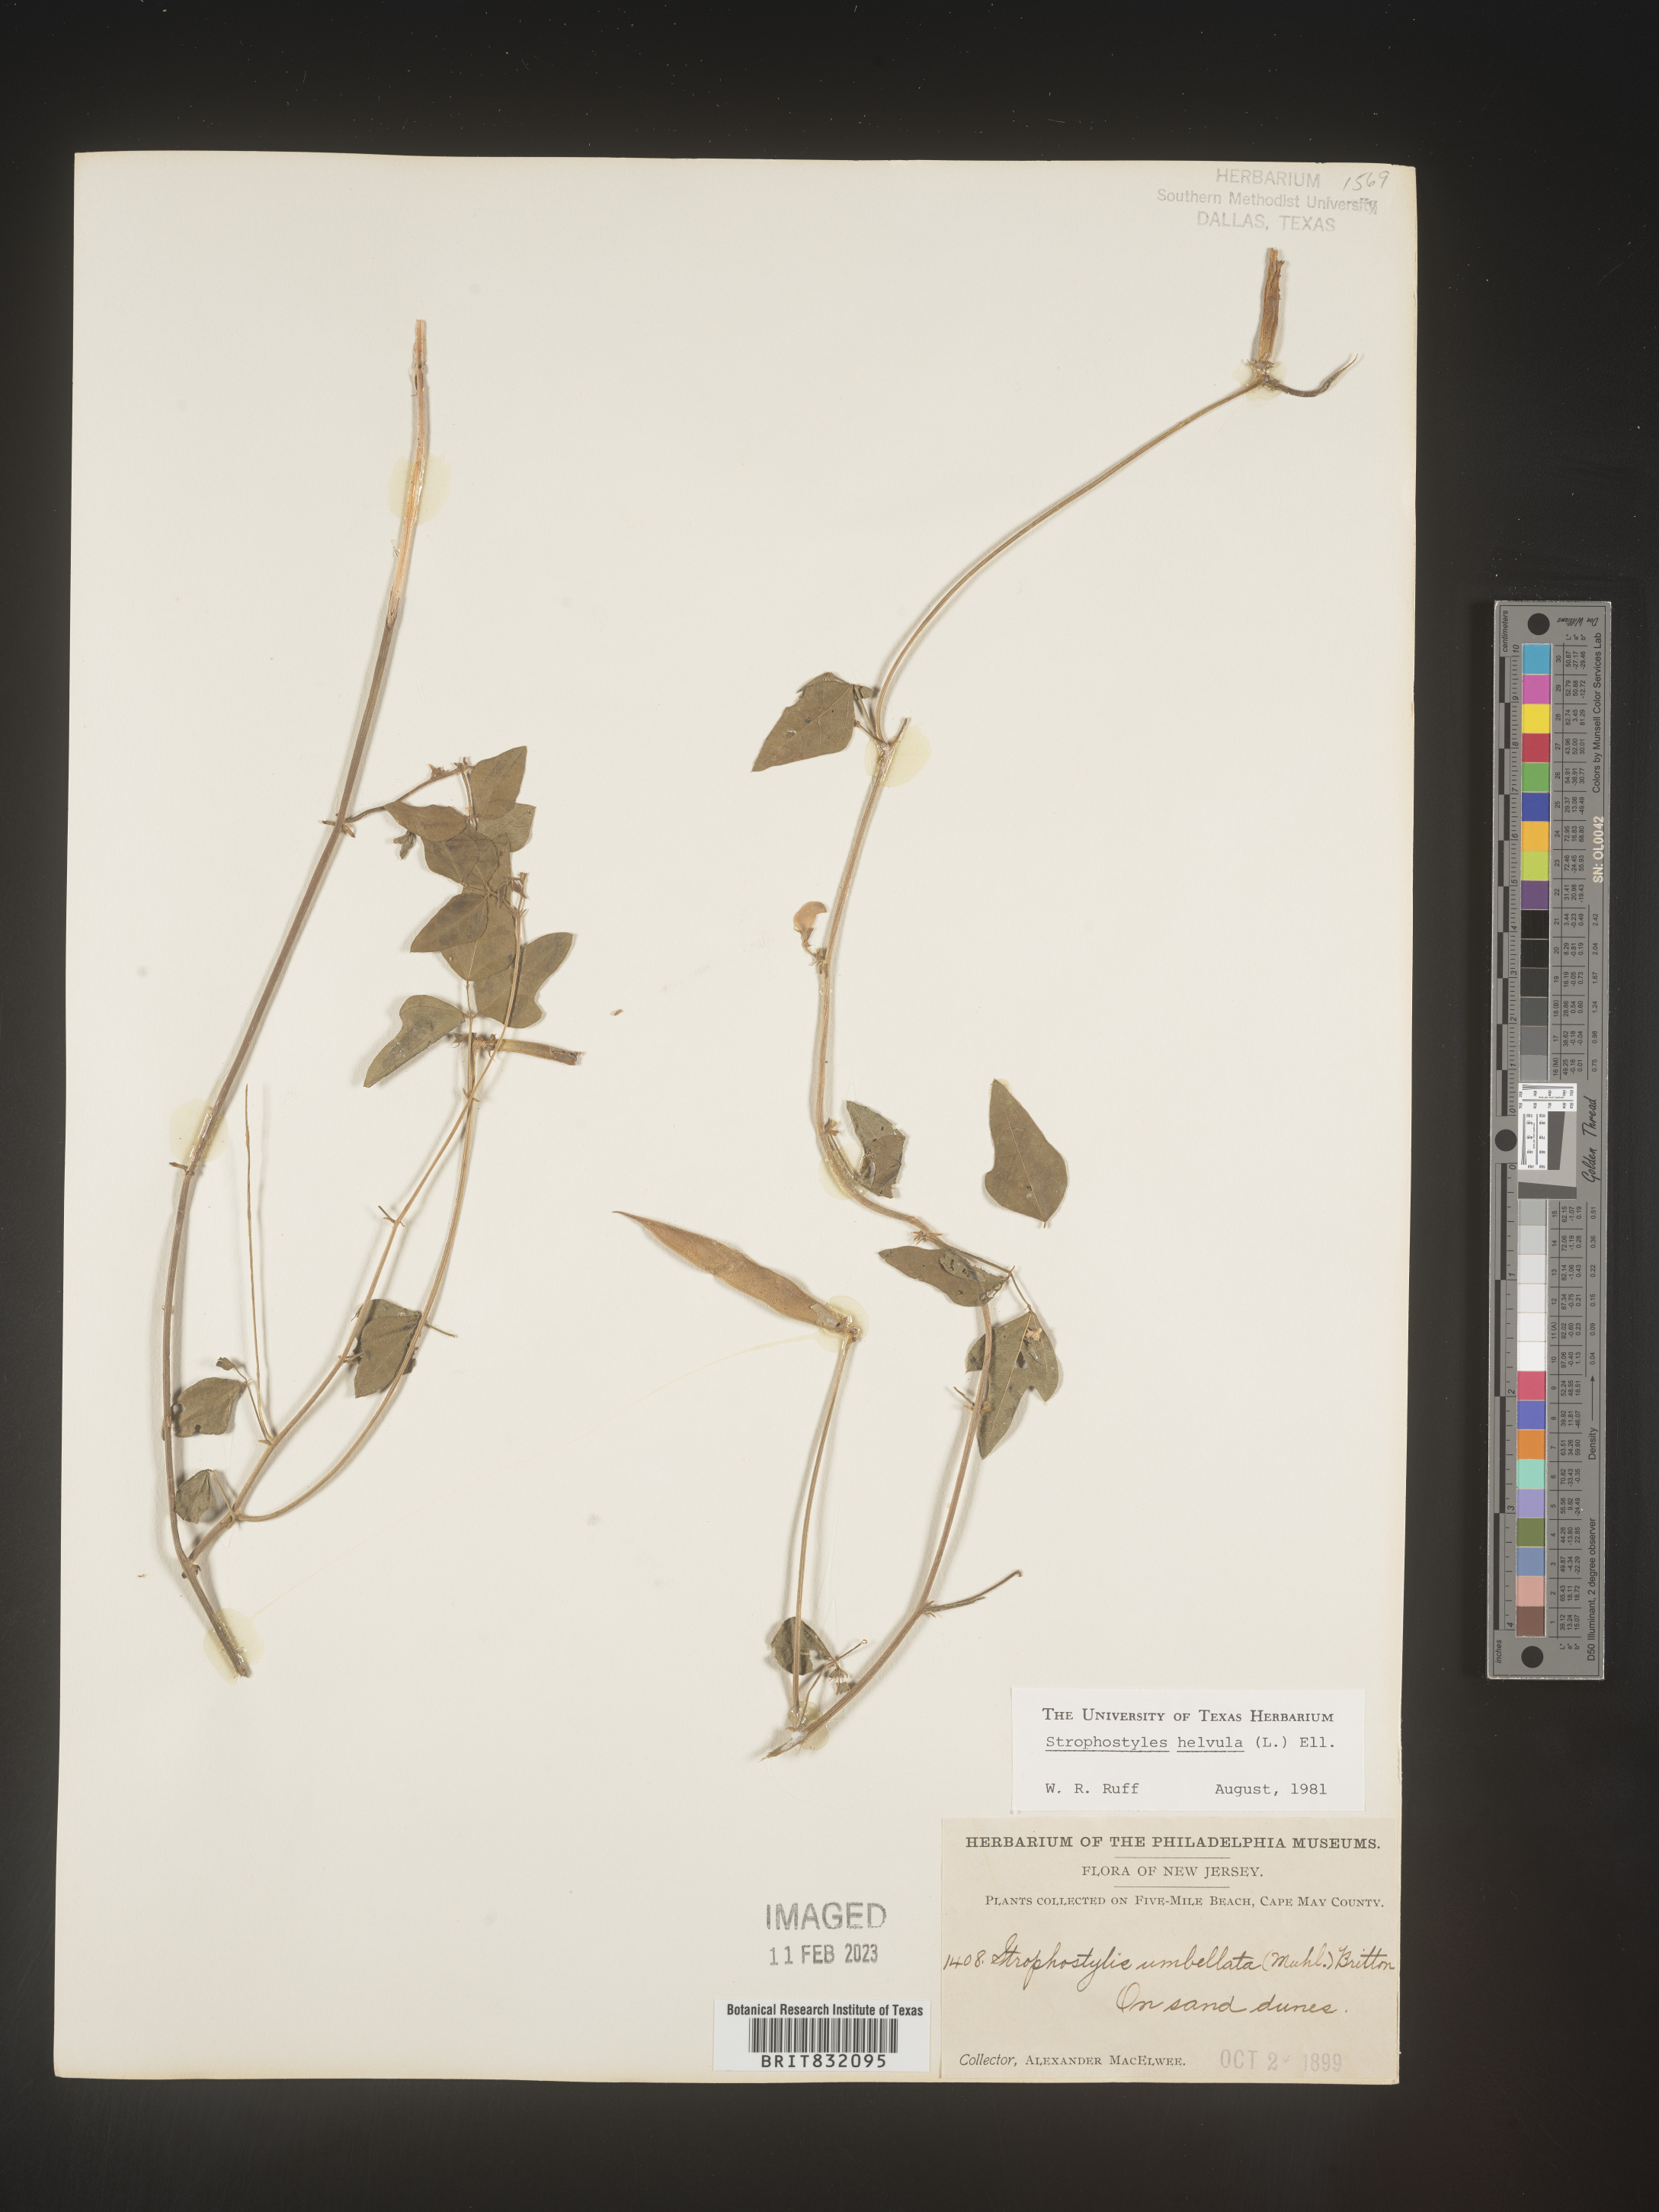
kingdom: Plantae
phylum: Tracheophyta
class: Magnoliopsida
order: Fabales
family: Fabaceae
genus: Strophostyles
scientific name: Strophostyles helvola
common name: Trailing wild bean
